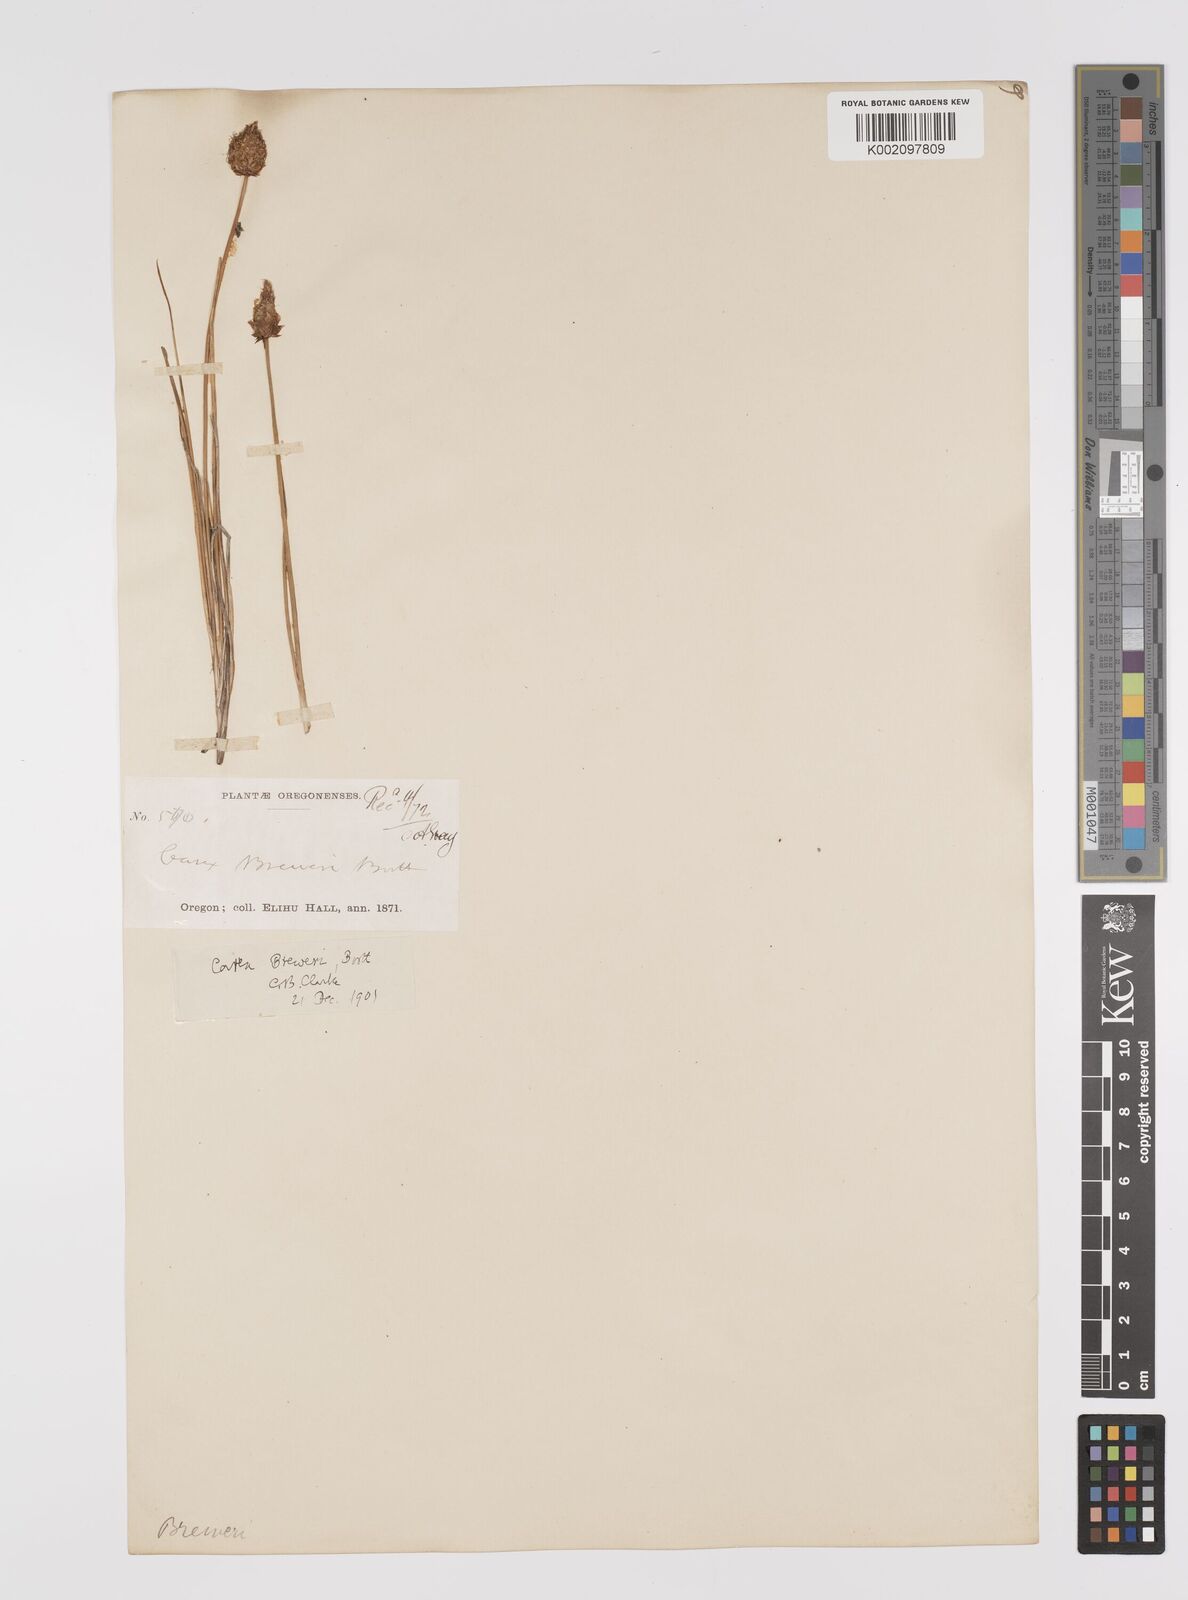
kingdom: Plantae
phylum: Tracheophyta
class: Liliopsida
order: Poales
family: Cyperaceae
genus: Carex
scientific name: Carex breweri
